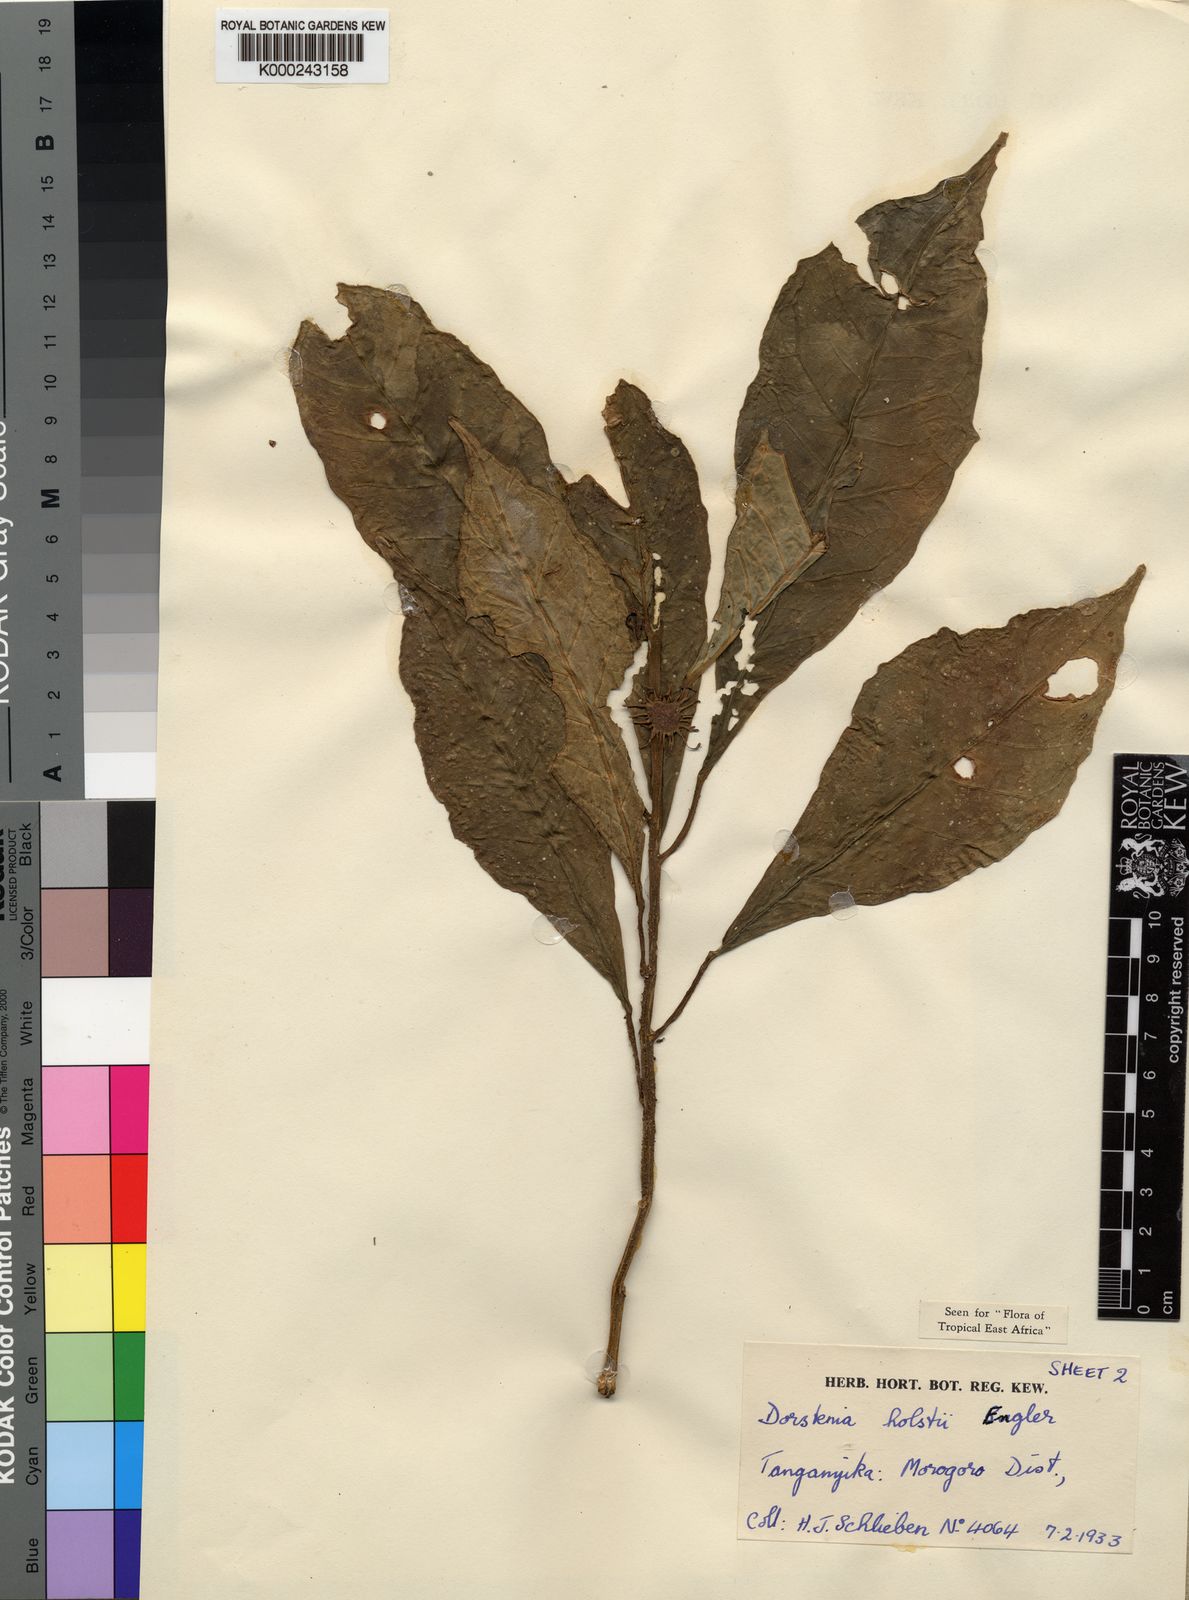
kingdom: Plantae
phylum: Tracheophyta
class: Magnoliopsida
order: Rosales
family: Moraceae
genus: Dorstenia
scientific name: Dorstenia holstii
